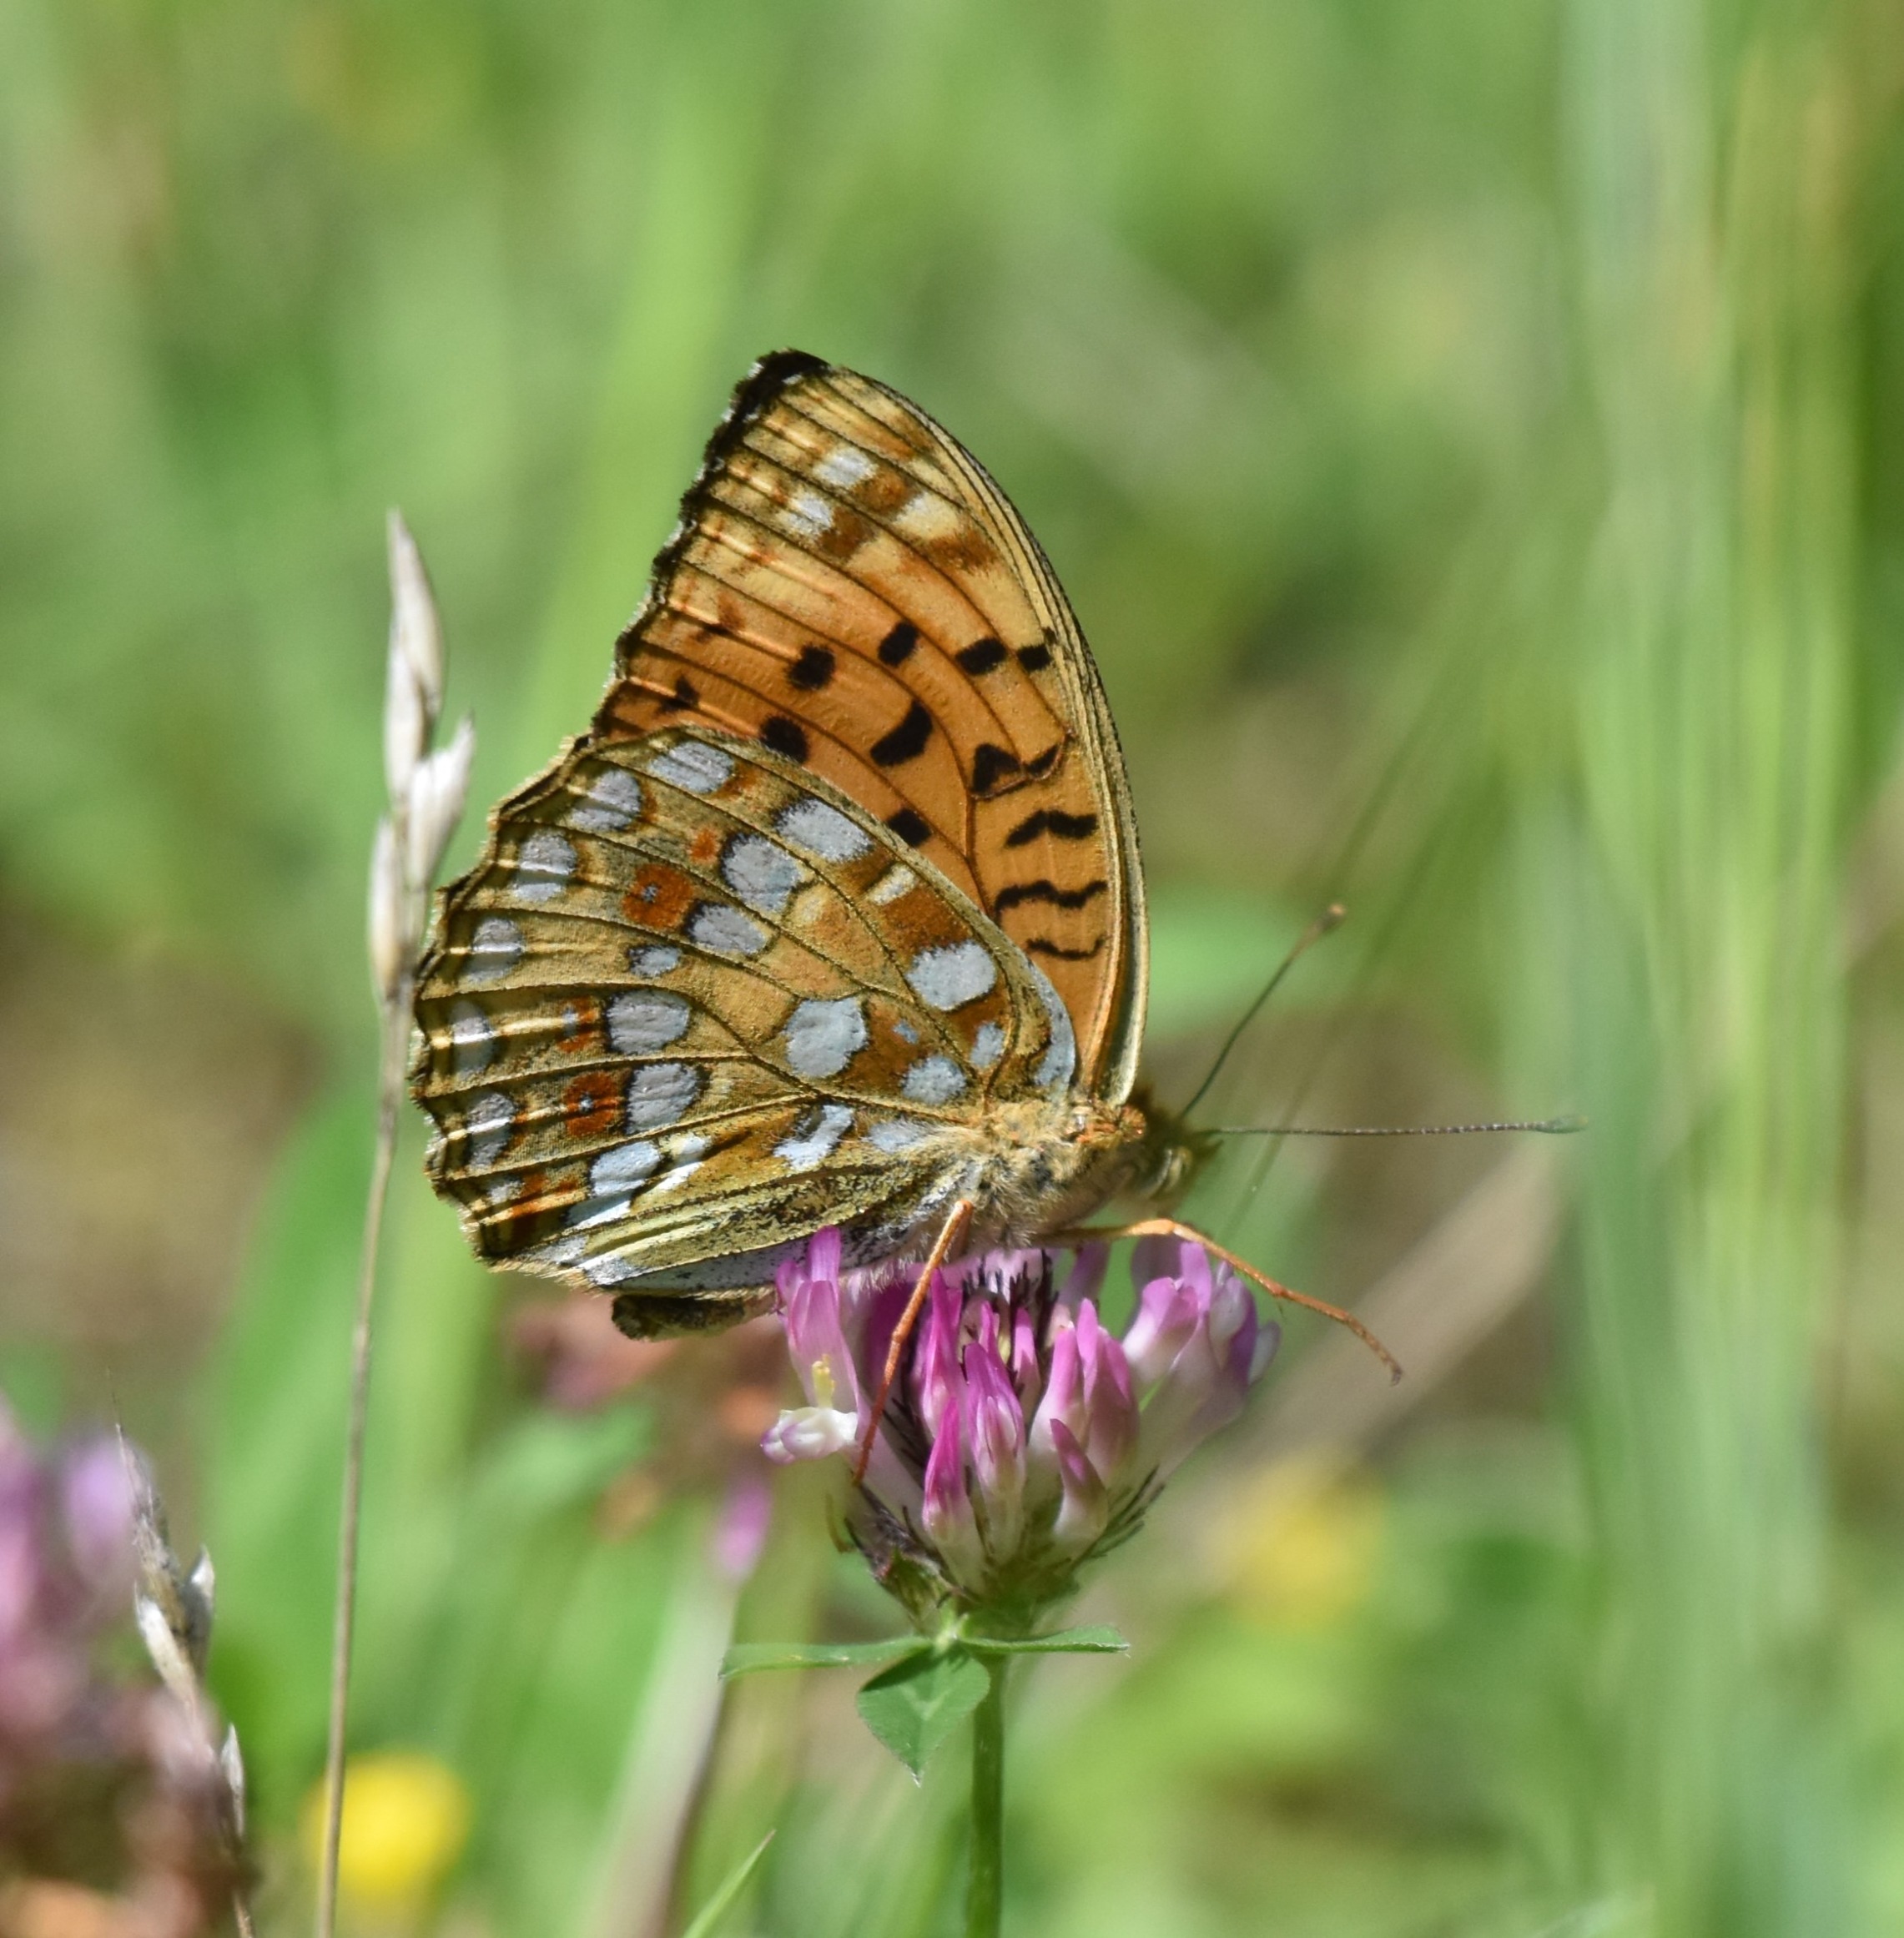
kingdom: Animalia
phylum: Arthropoda
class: Insecta
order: Lepidoptera
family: Nymphalidae
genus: Fabriciana
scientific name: Fabriciana adippe
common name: Skovperlemorsommerfugl
